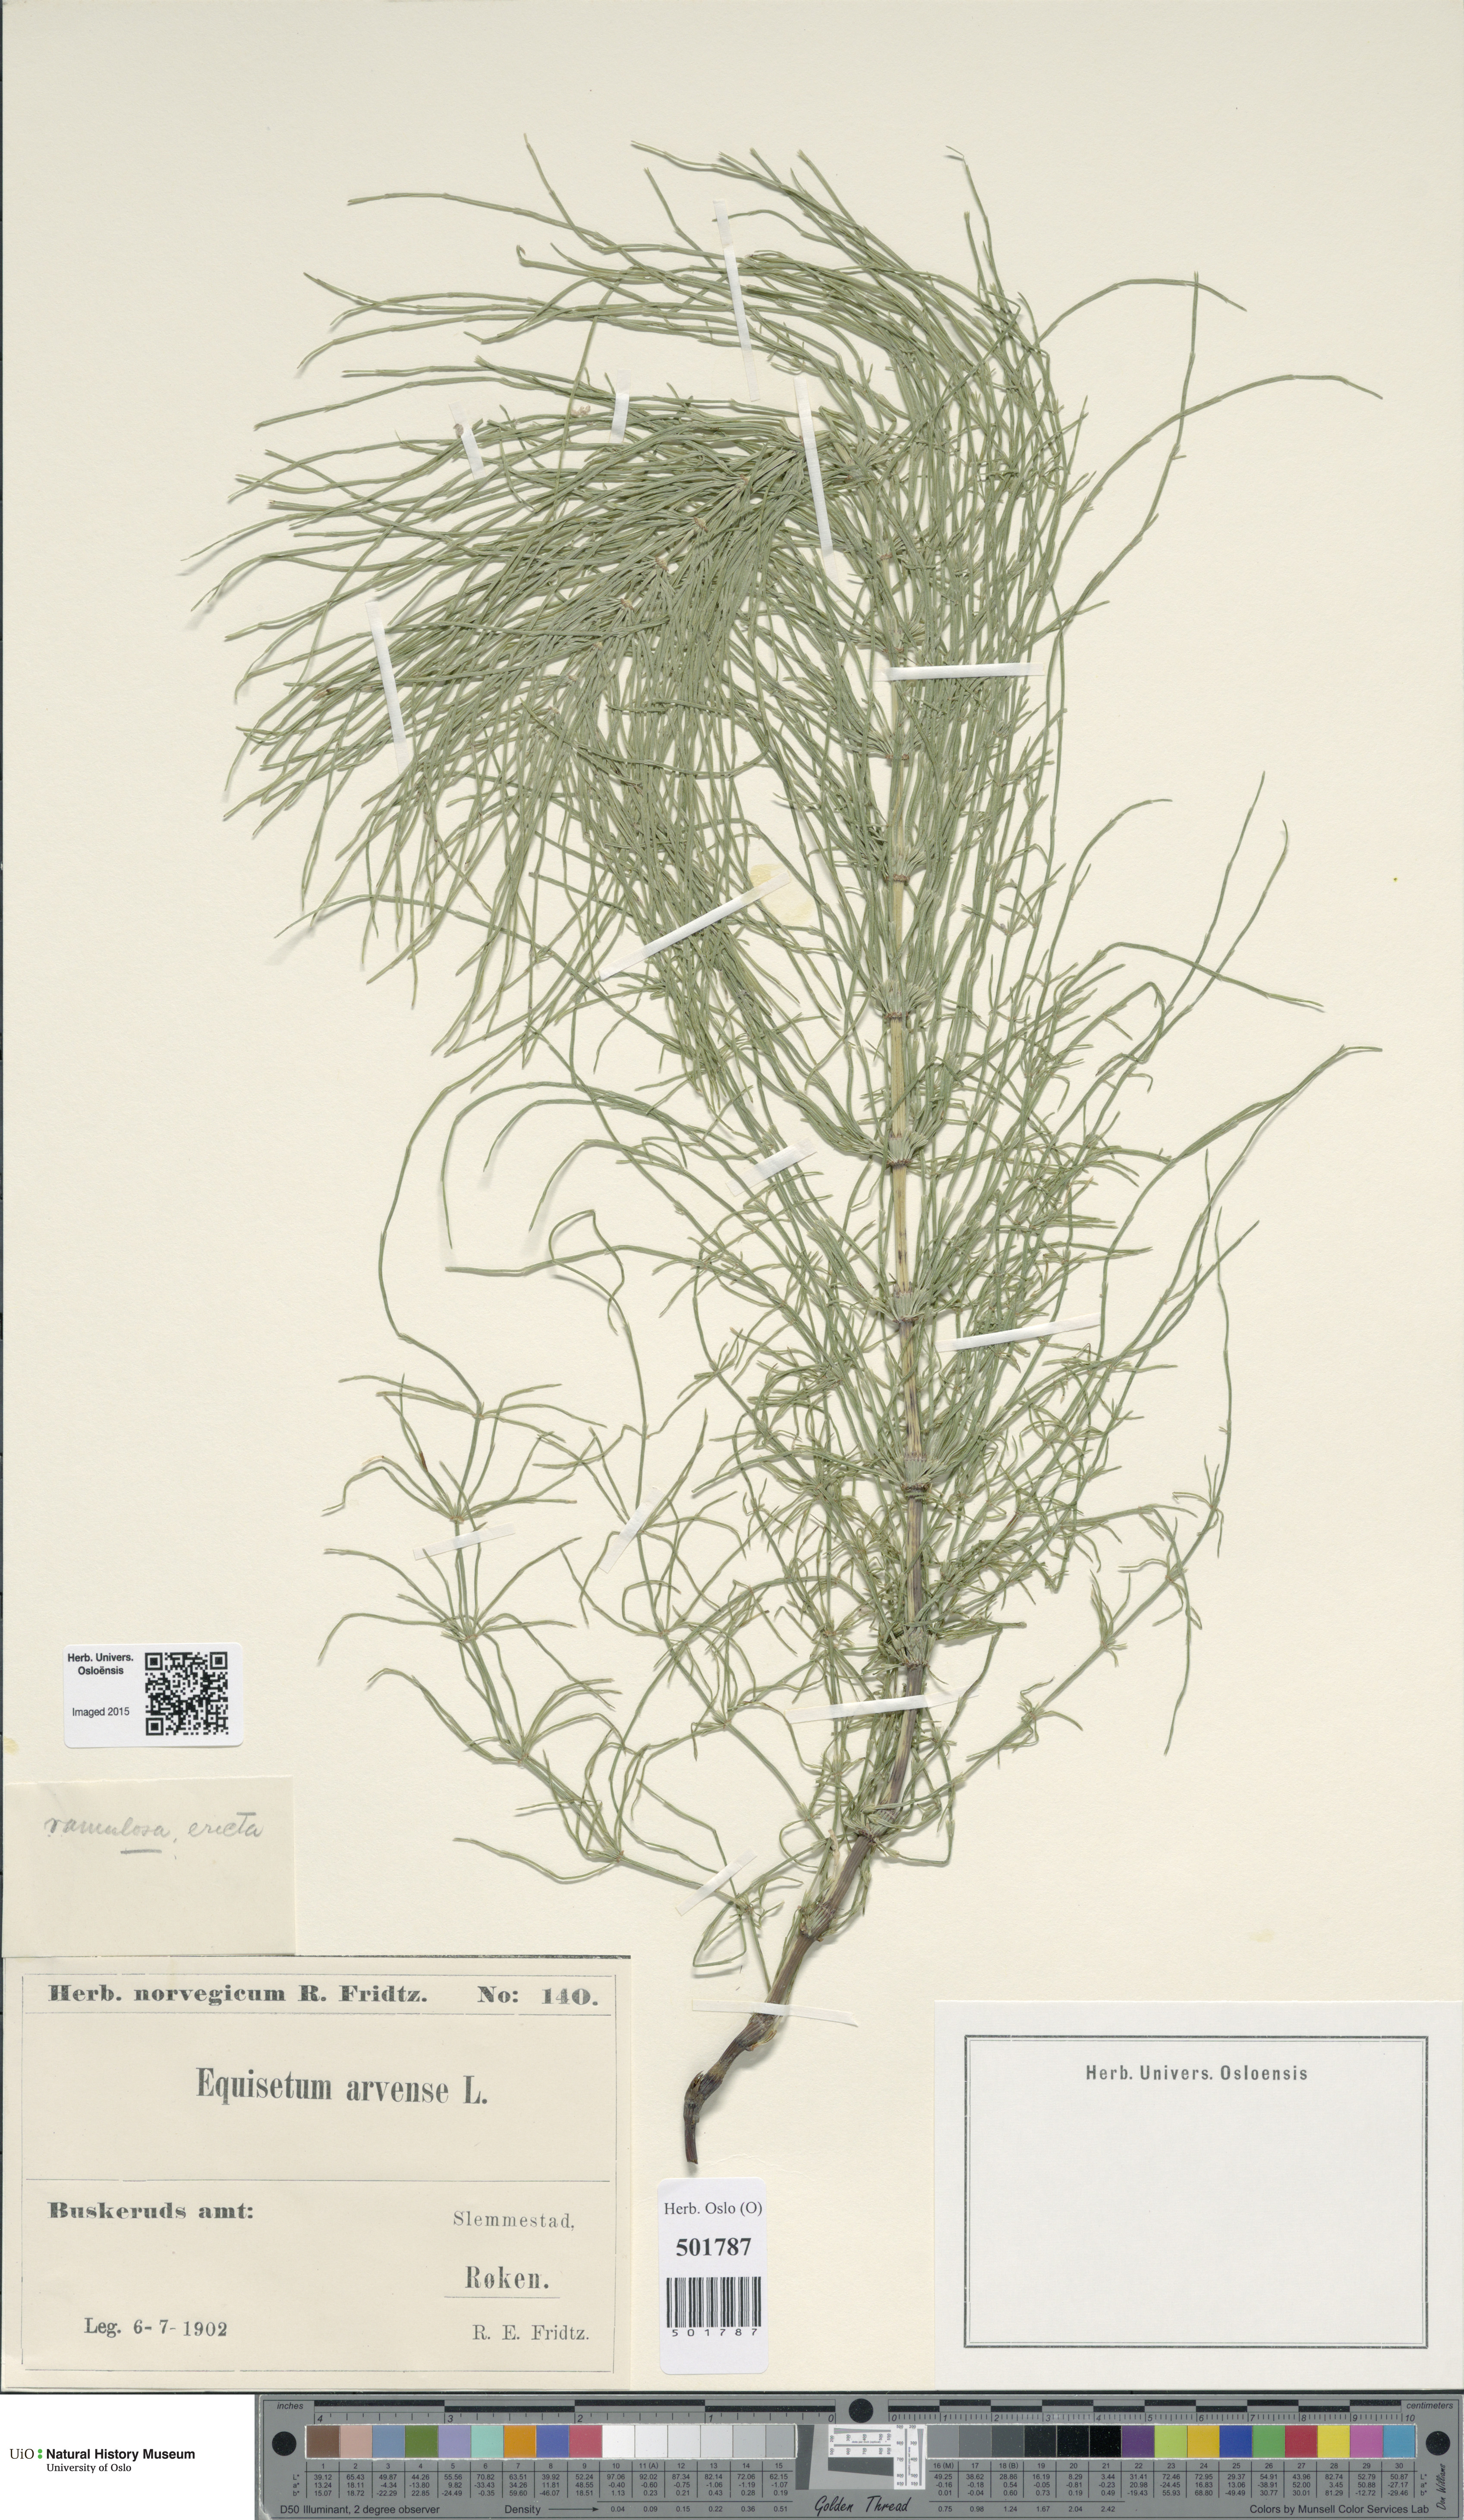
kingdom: Plantae
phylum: Tracheophyta
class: Polypodiopsida
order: Equisetales
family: Equisetaceae
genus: Equisetum
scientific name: Equisetum pratense
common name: Meadow horsetail
